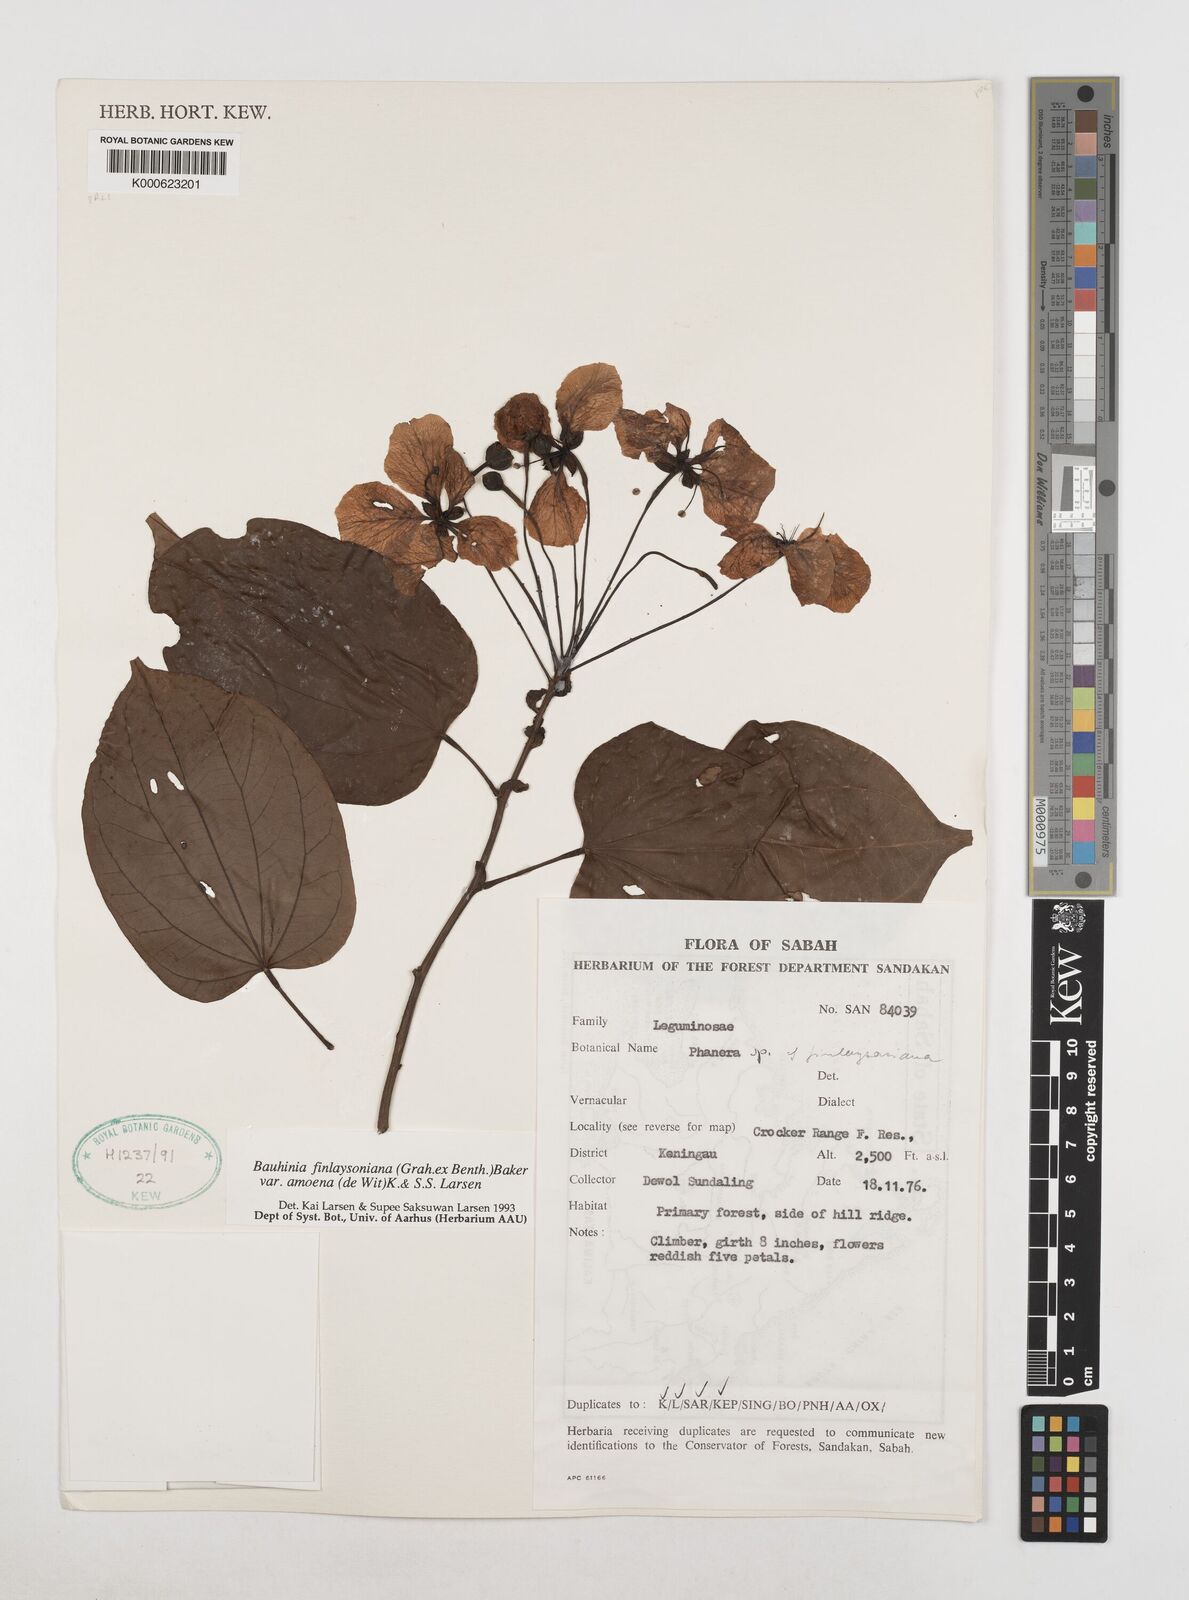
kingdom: Plantae
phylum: Tracheophyta
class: Magnoliopsida
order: Fabales
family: Fabaceae
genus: Phanera
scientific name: Phanera finlaysoniana
